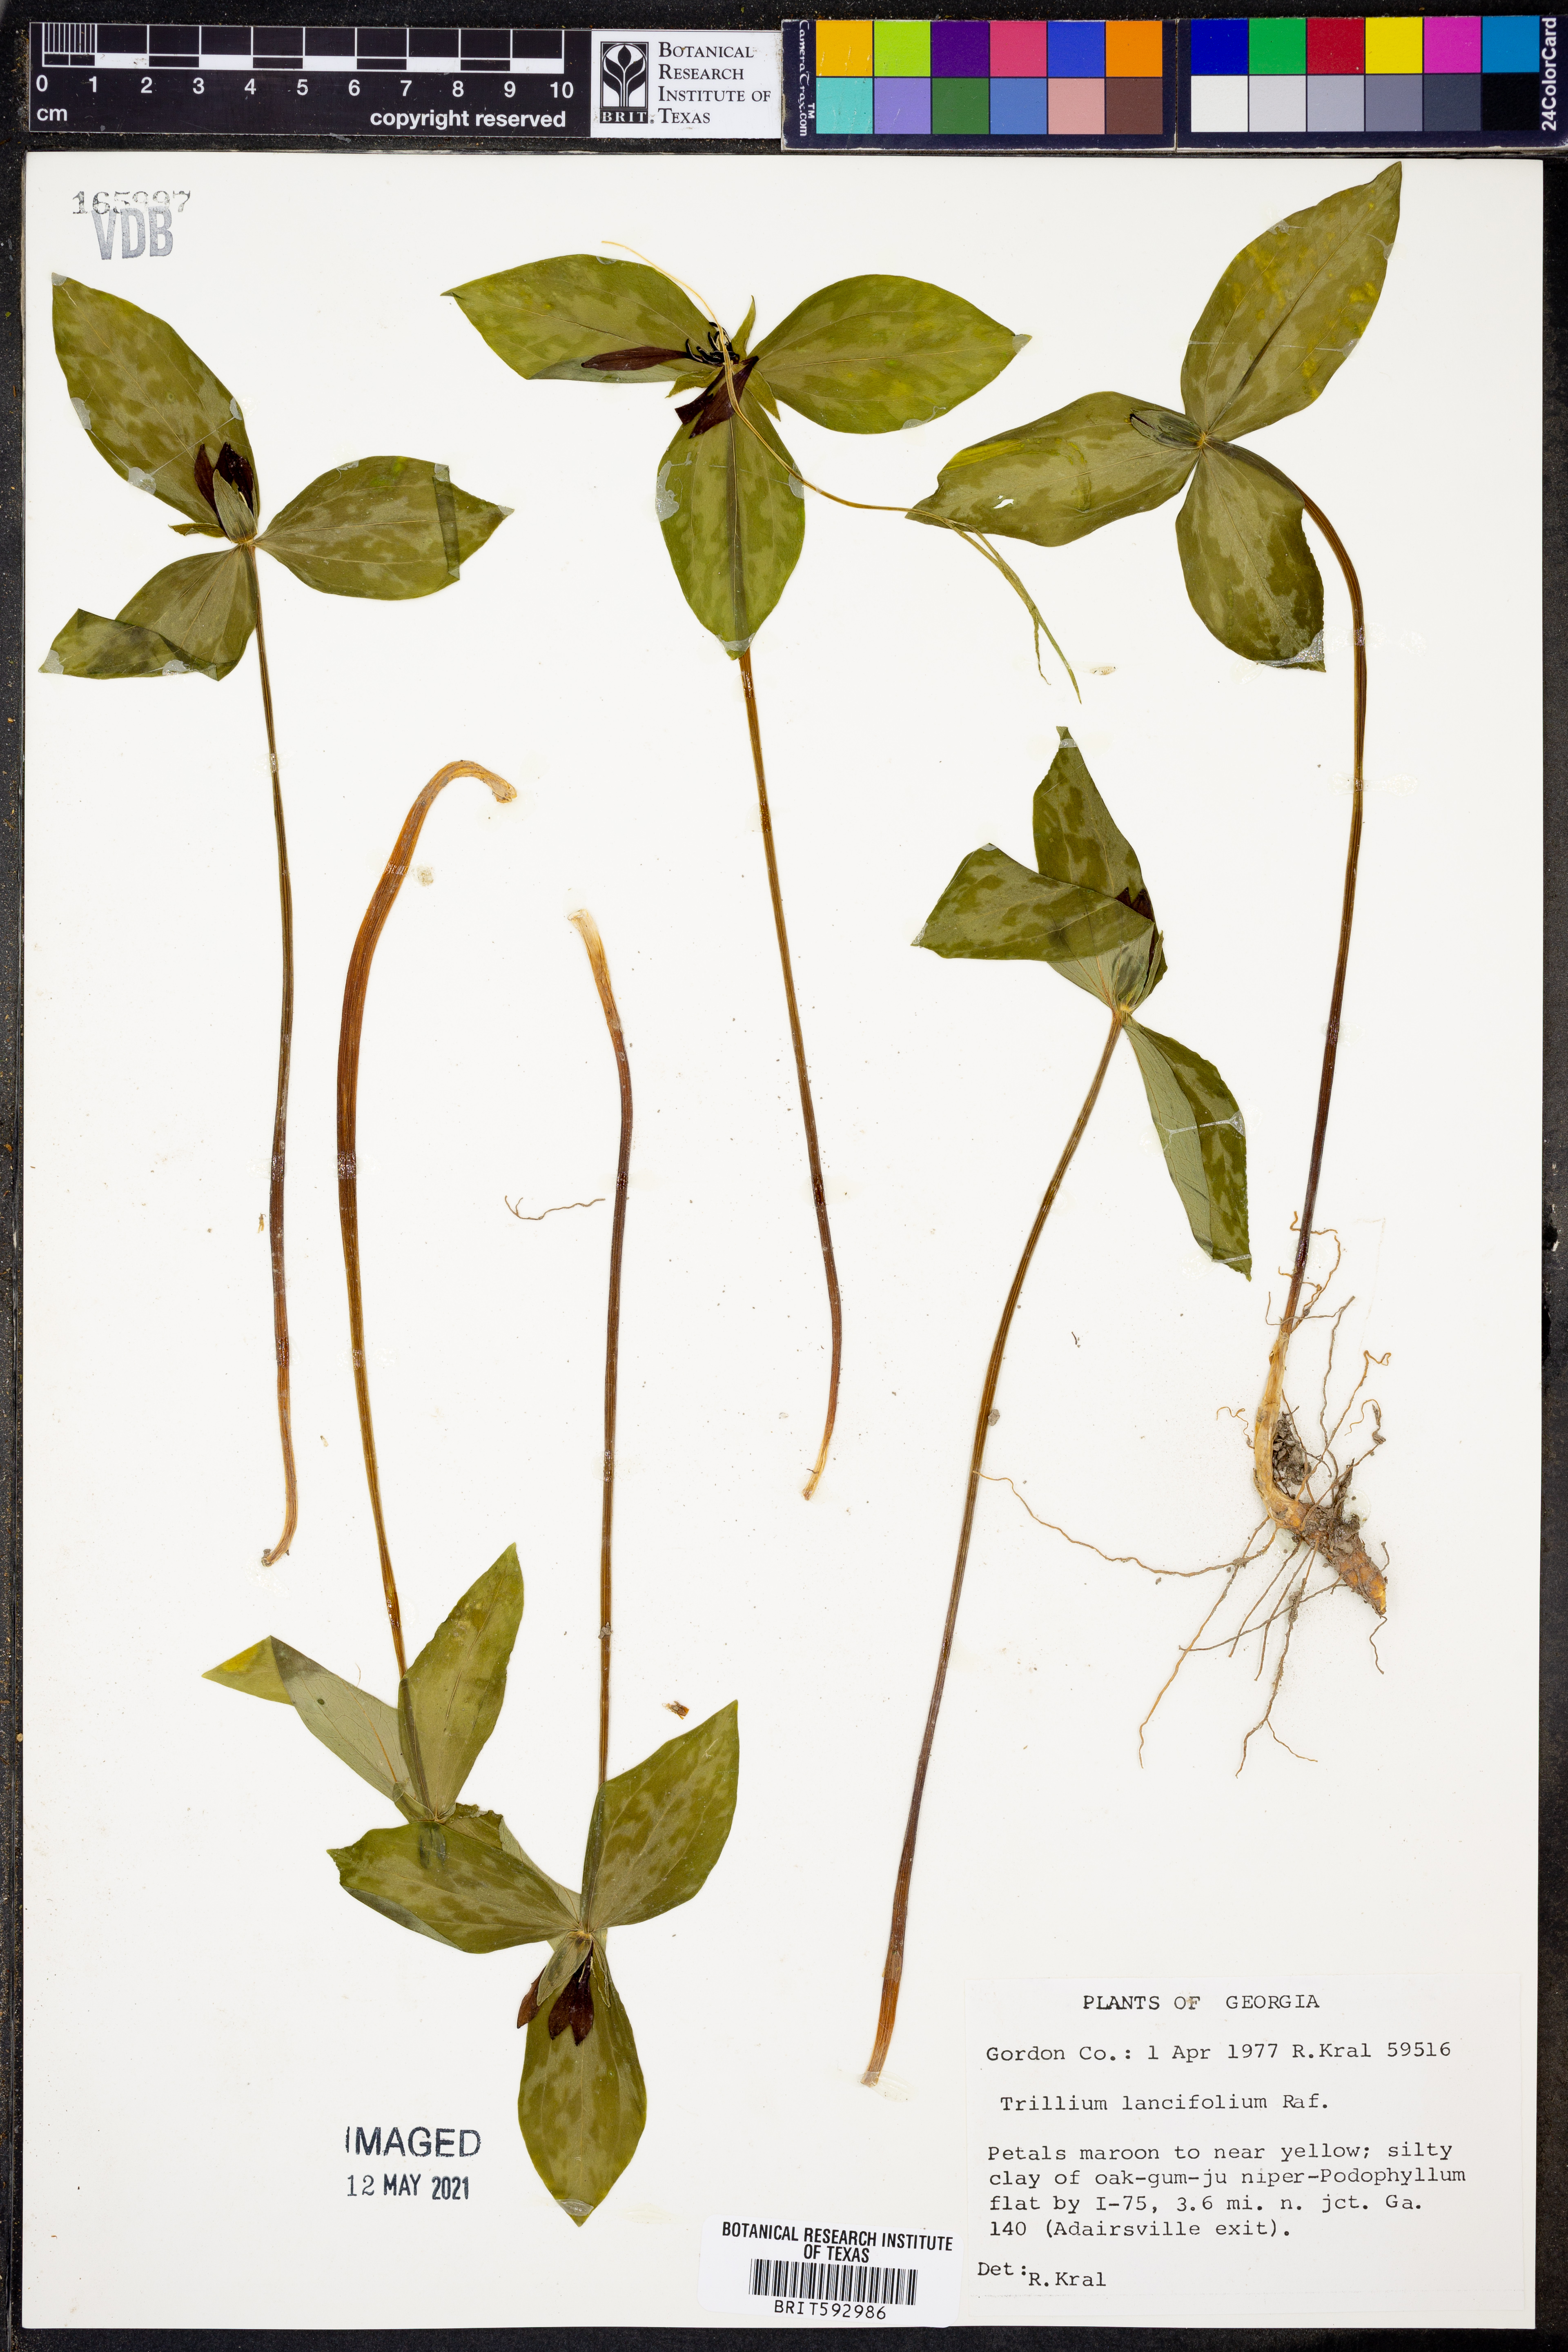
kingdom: Plantae
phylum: Tracheophyta
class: Liliopsida
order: Liliales
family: Melanthiaceae
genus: Trillium
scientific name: Trillium lancifolium
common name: Lance-leaved trillium
